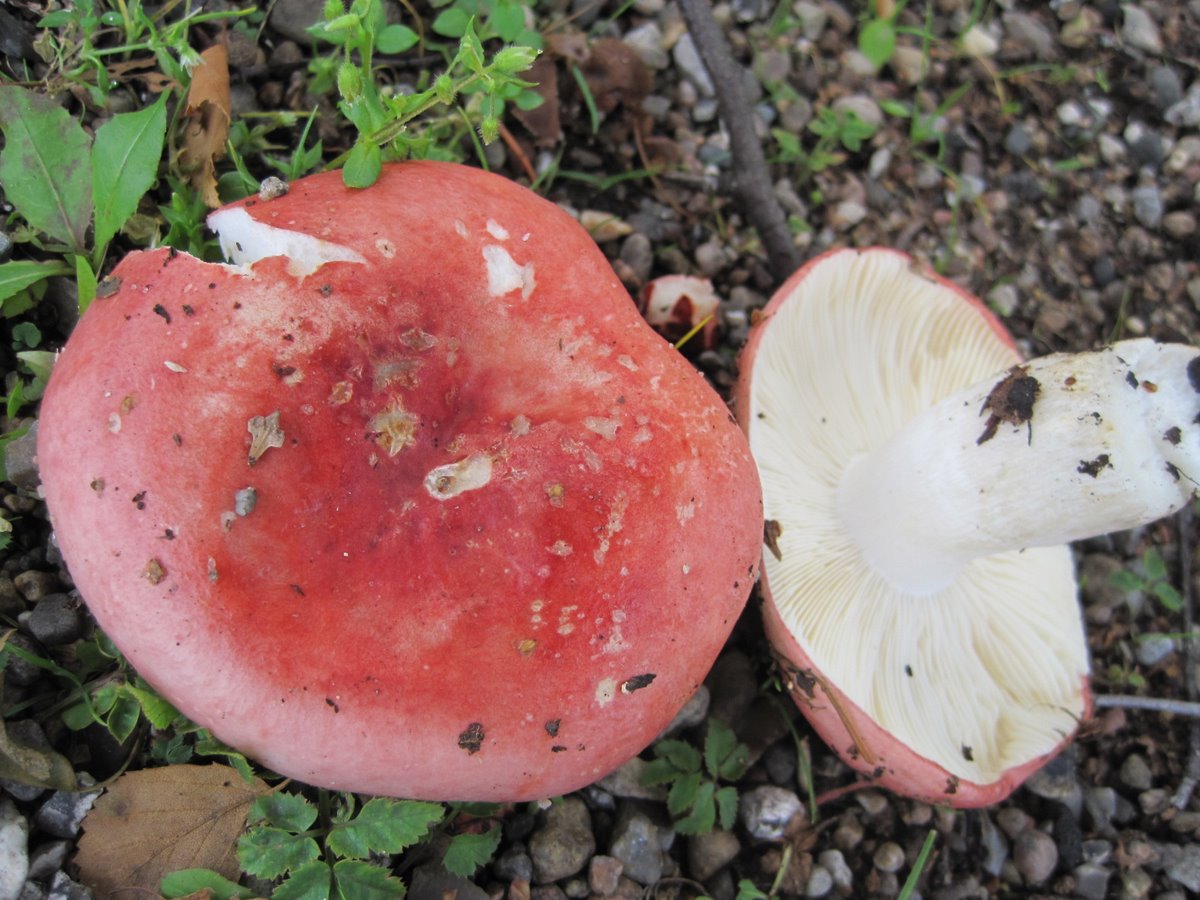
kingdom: Fungi
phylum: Basidiomycota
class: Agaricomycetes
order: Russulales
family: Russulaceae
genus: Russula
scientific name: Russula depallens
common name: falmende skørhat
